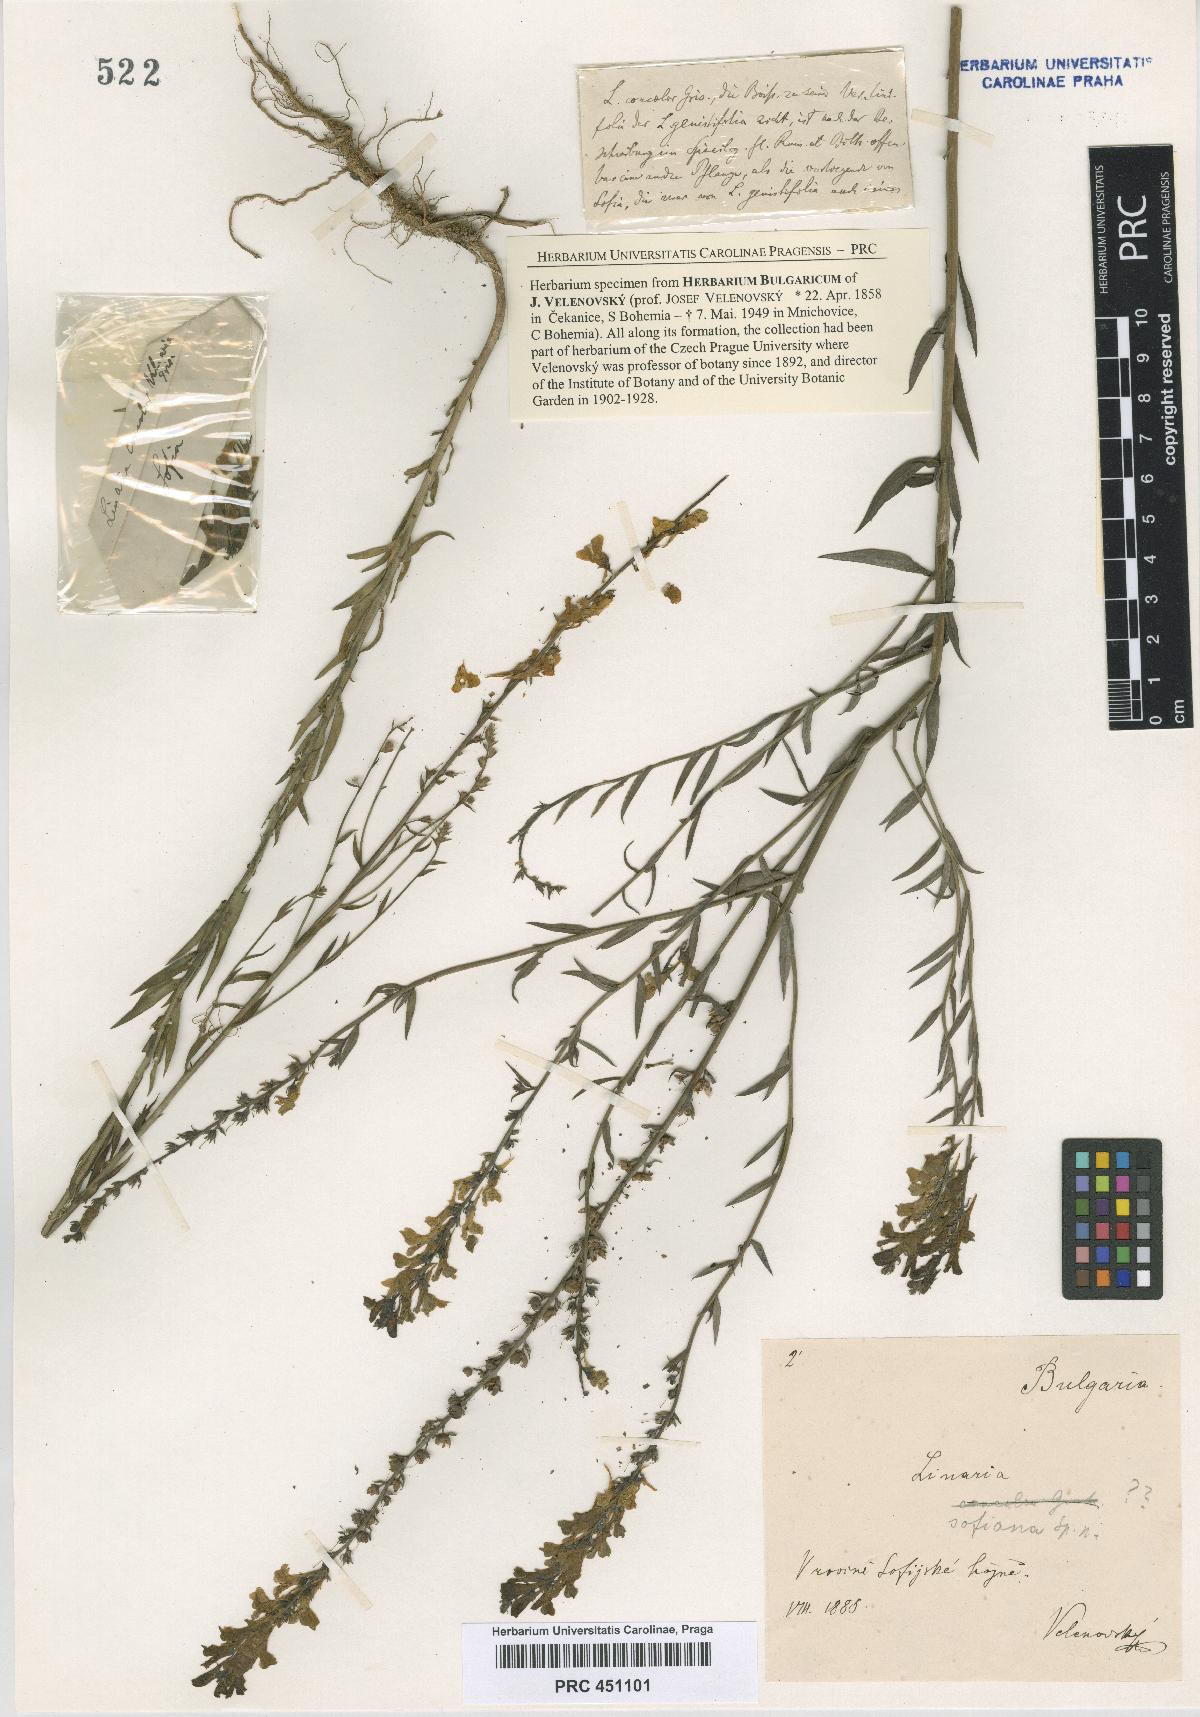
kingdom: Plantae
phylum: Tracheophyta
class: Magnoliopsida
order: Lamiales
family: Plantaginaceae
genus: Linaria
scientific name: Linaria genistifolia
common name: Broomleaf toadflax
